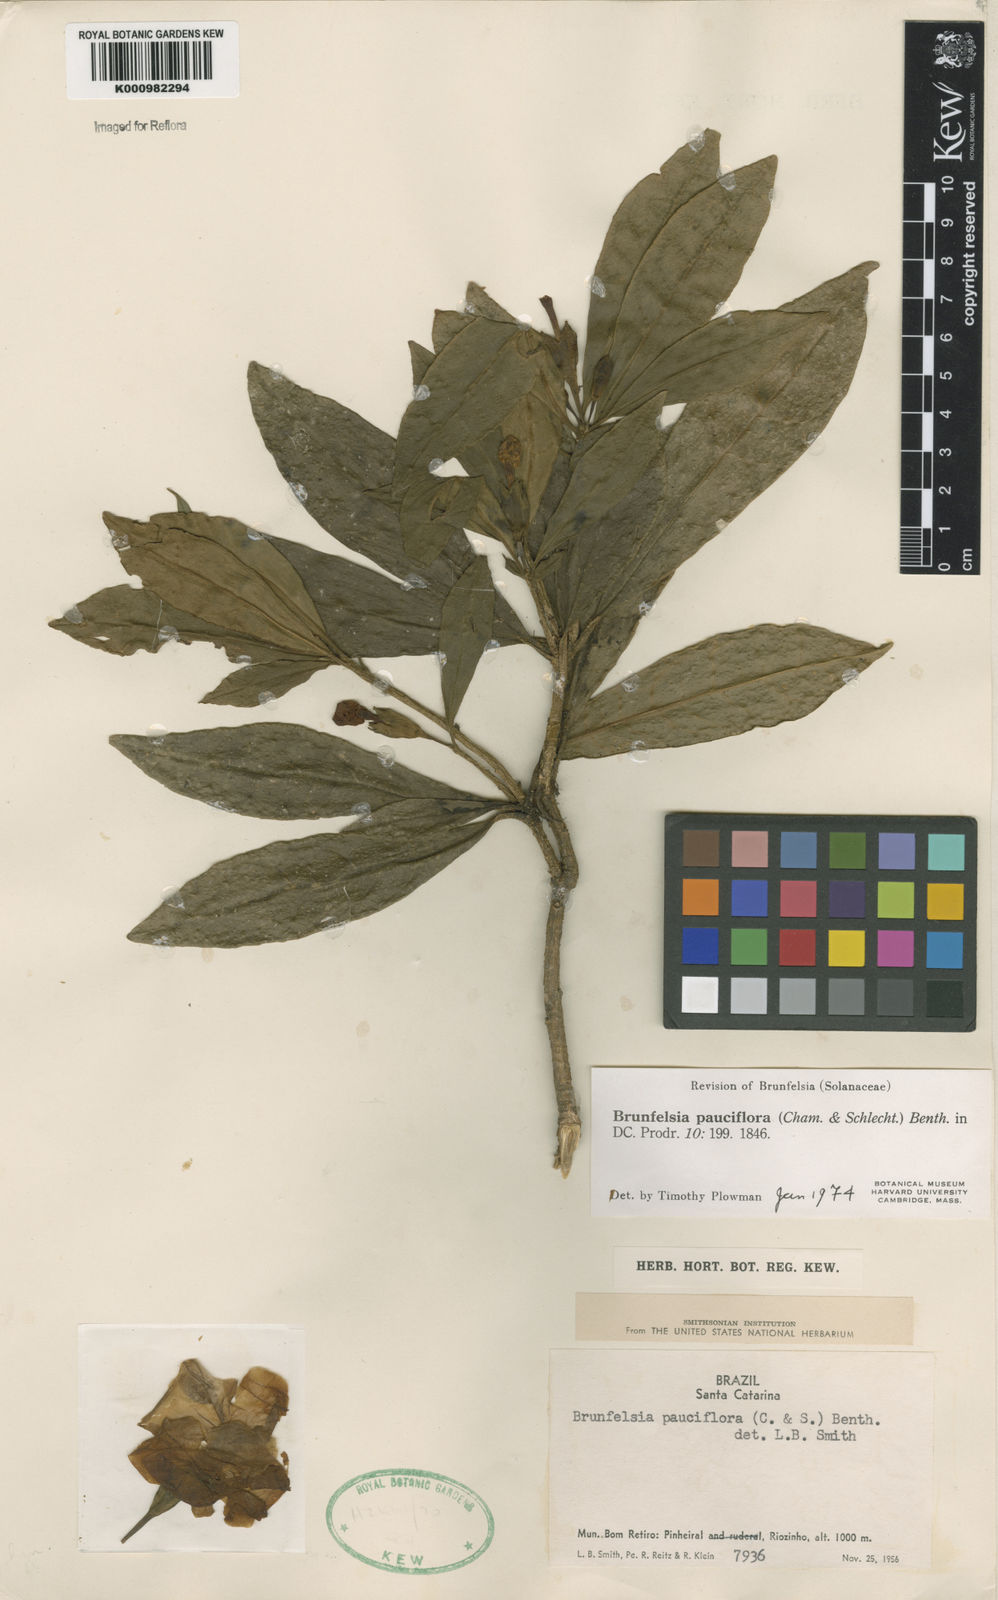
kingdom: Plantae
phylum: Tracheophyta
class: Magnoliopsida
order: Solanales
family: Solanaceae
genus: Brunfelsia
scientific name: Brunfelsia pauciflora
